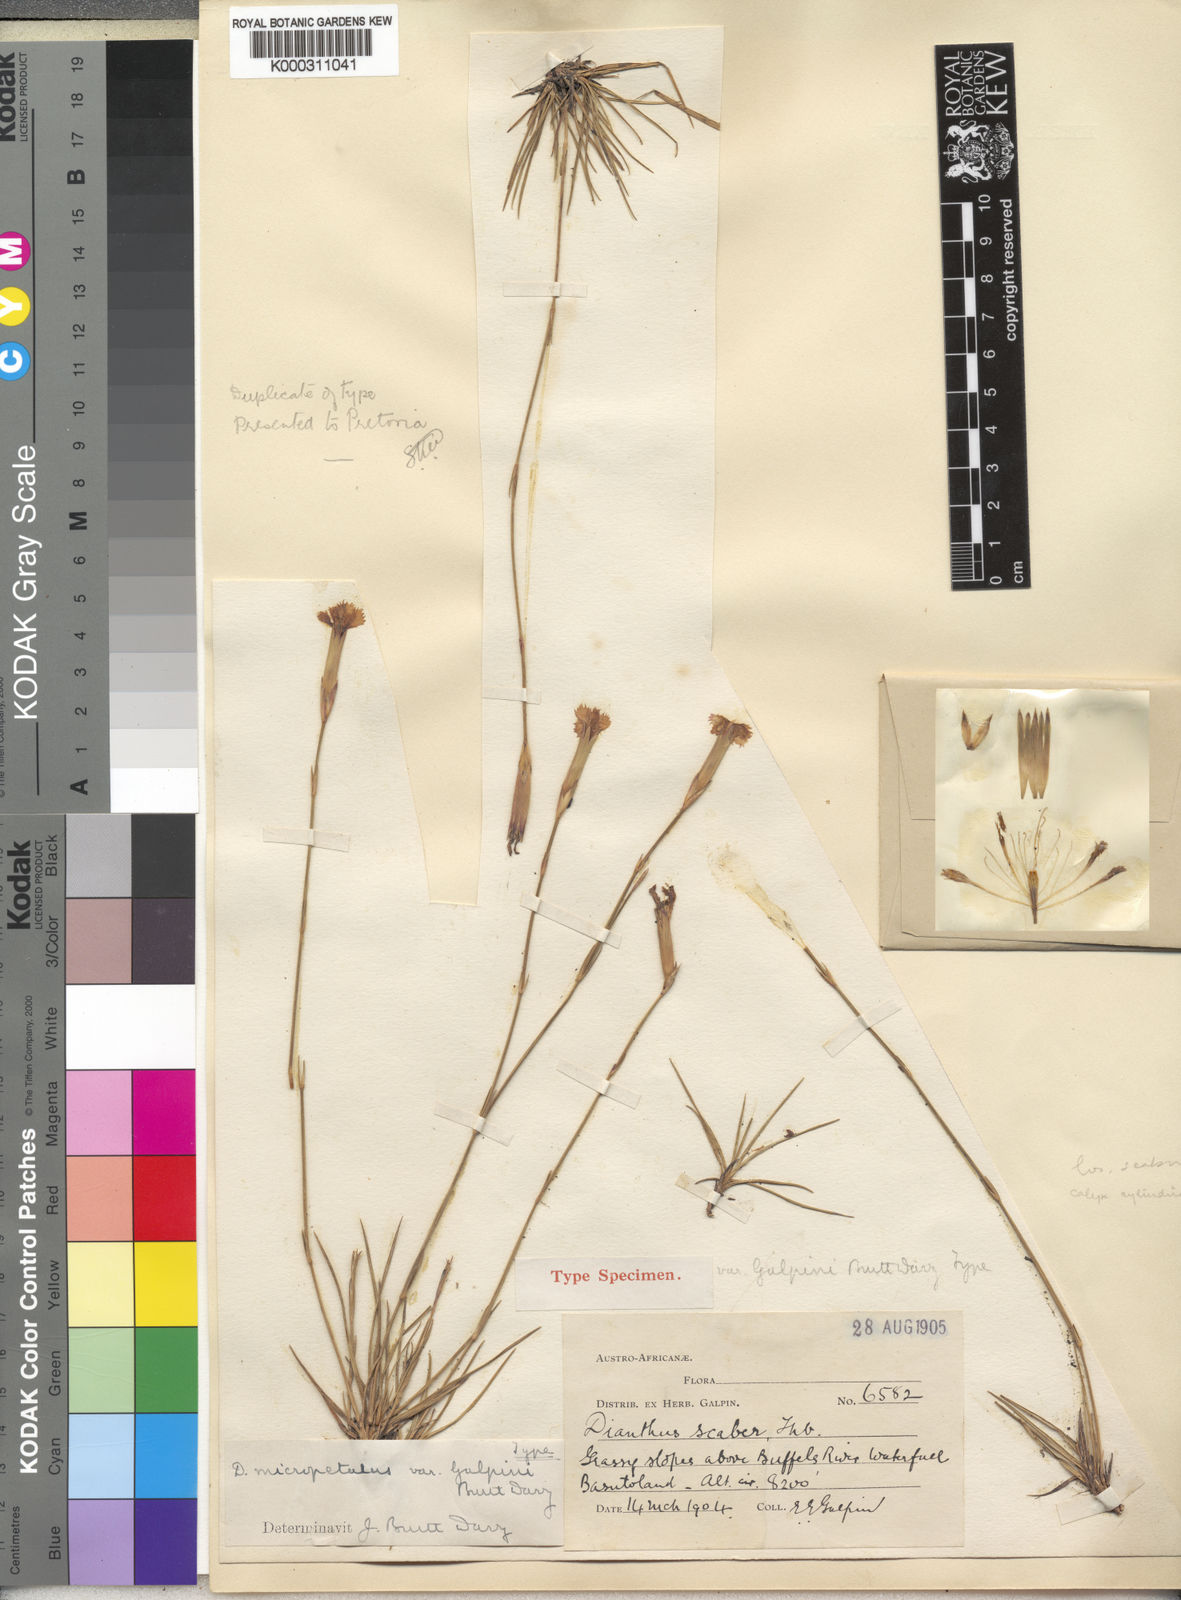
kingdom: Plantae
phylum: Tracheophyta
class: Magnoliopsida
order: Caryophyllales
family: Caryophyllaceae
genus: Dianthus
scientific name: Dianthus thunbergii
